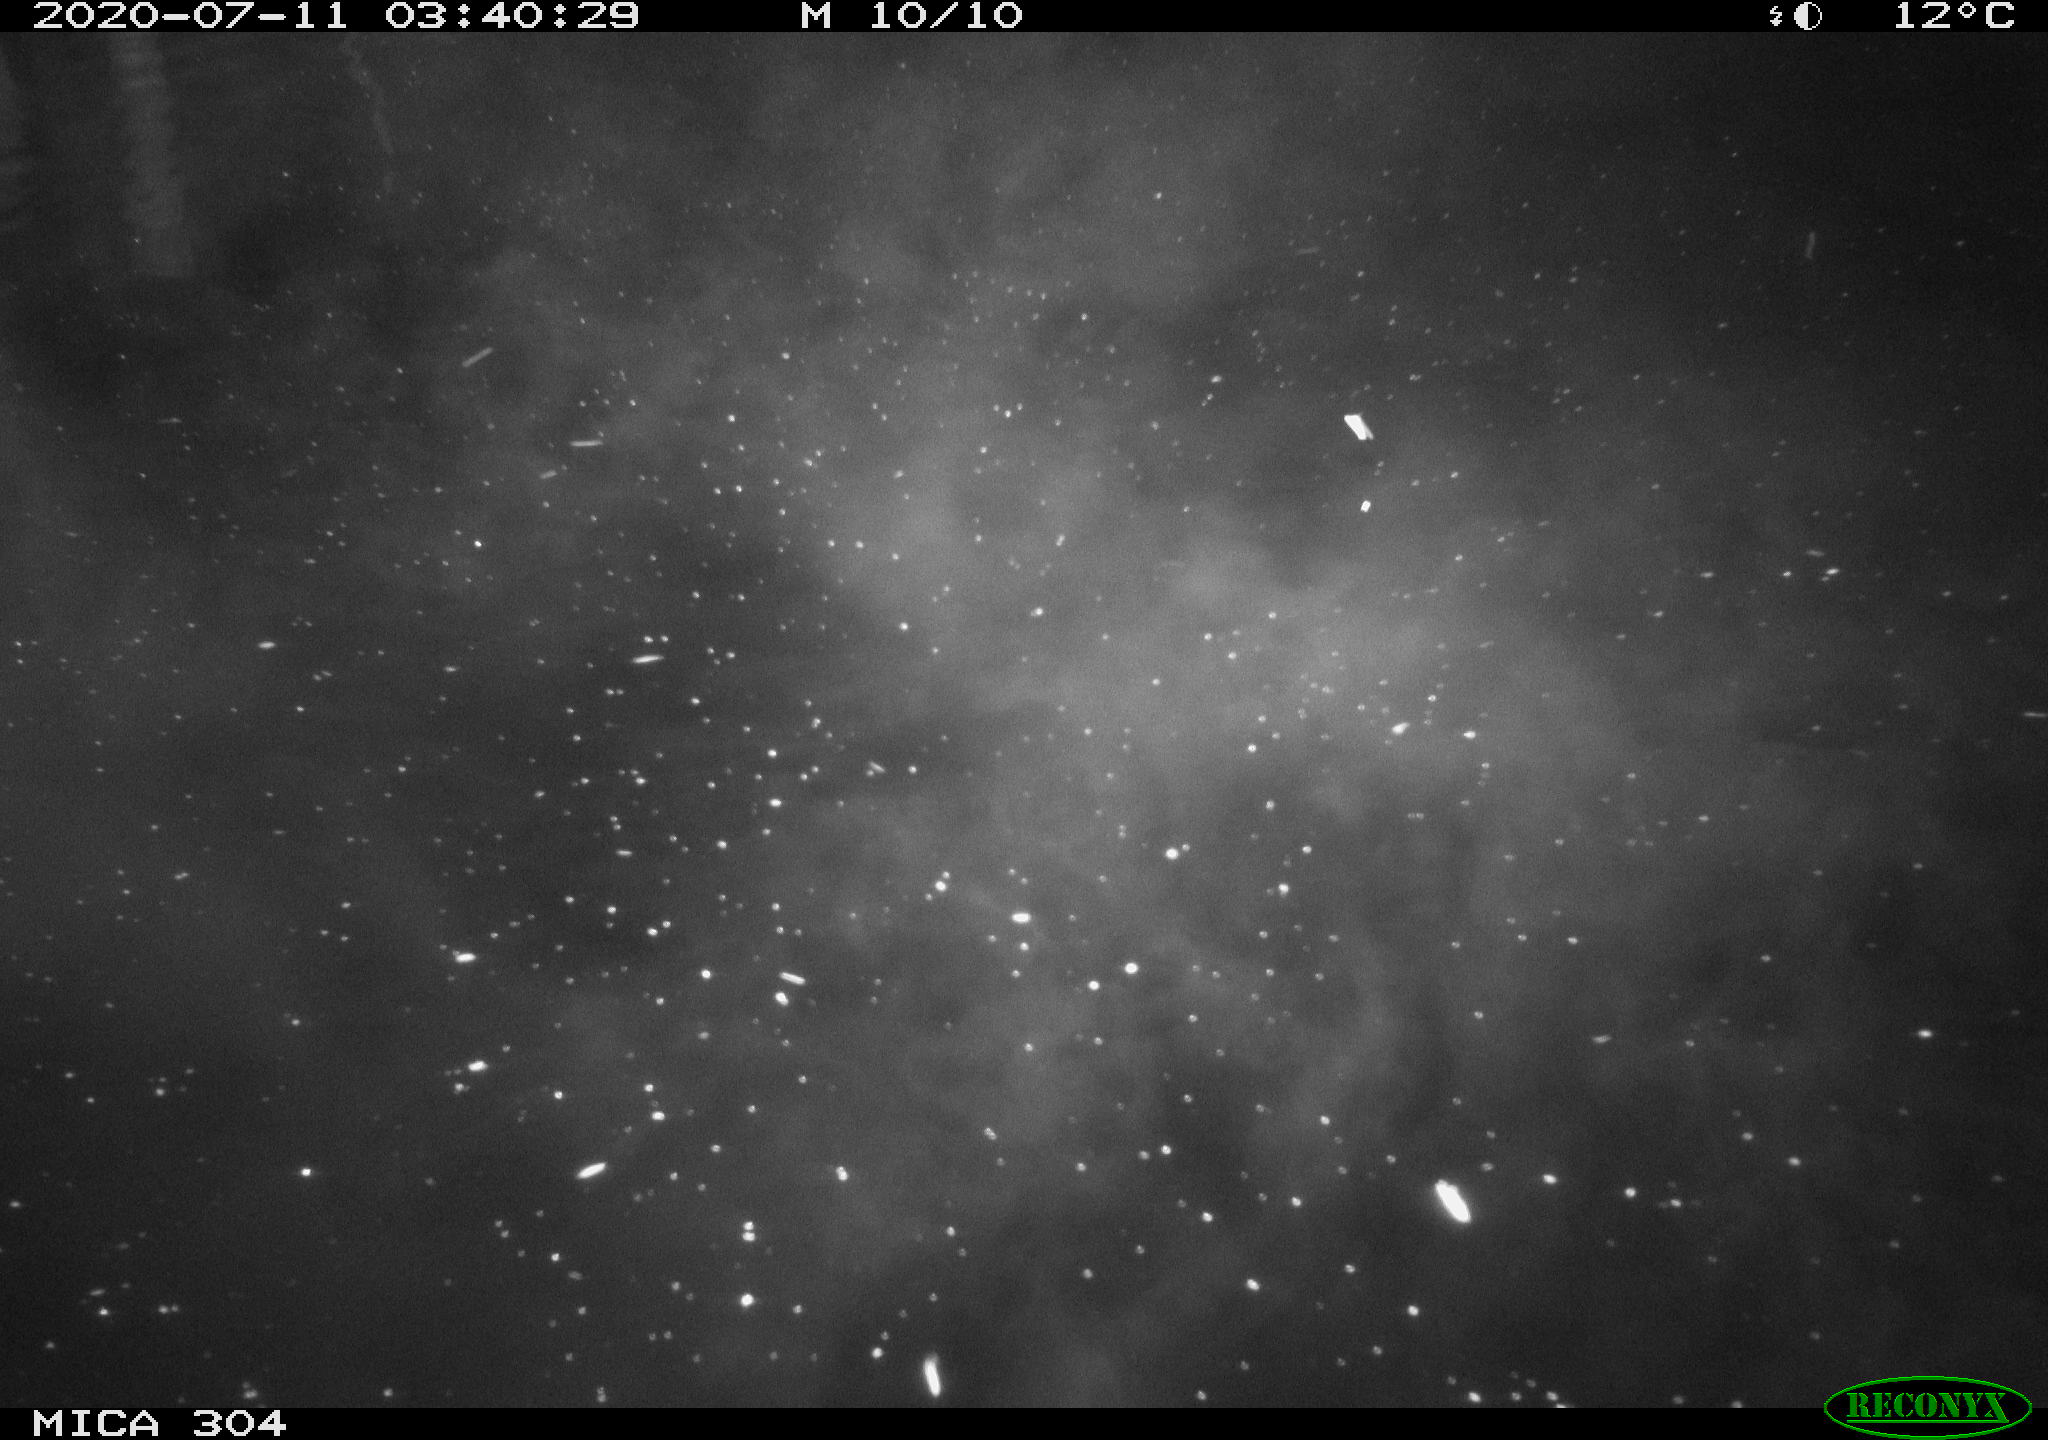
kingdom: Animalia
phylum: Chordata
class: Mammalia
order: Rodentia
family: Cricetidae
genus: Ondatra
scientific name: Ondatra zibethicus
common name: Muskrat
